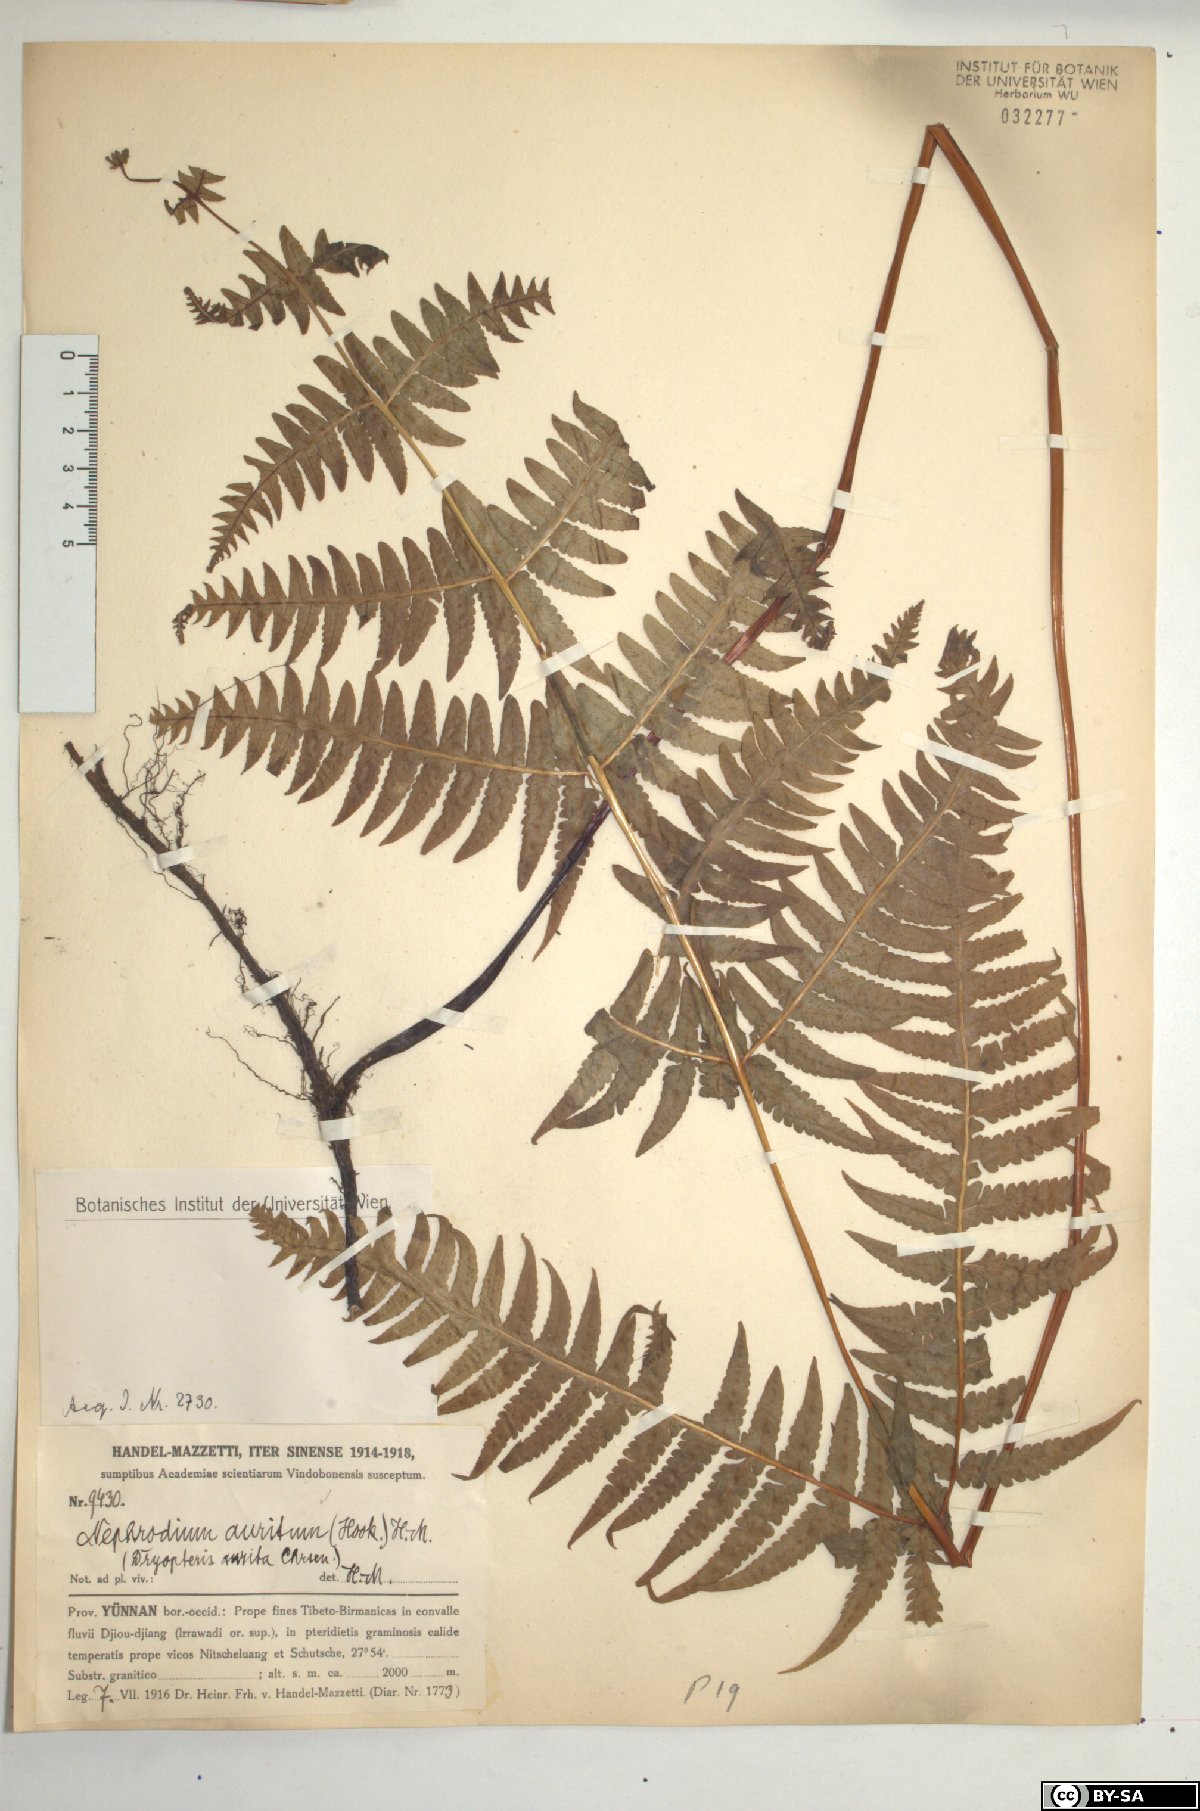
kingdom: Plantae
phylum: Tracheophyta
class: Polypodiopsida
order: Polypodiales
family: Thelypteridaceae
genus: Pseudophegopteris
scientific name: Pseudophegopteris aurita
